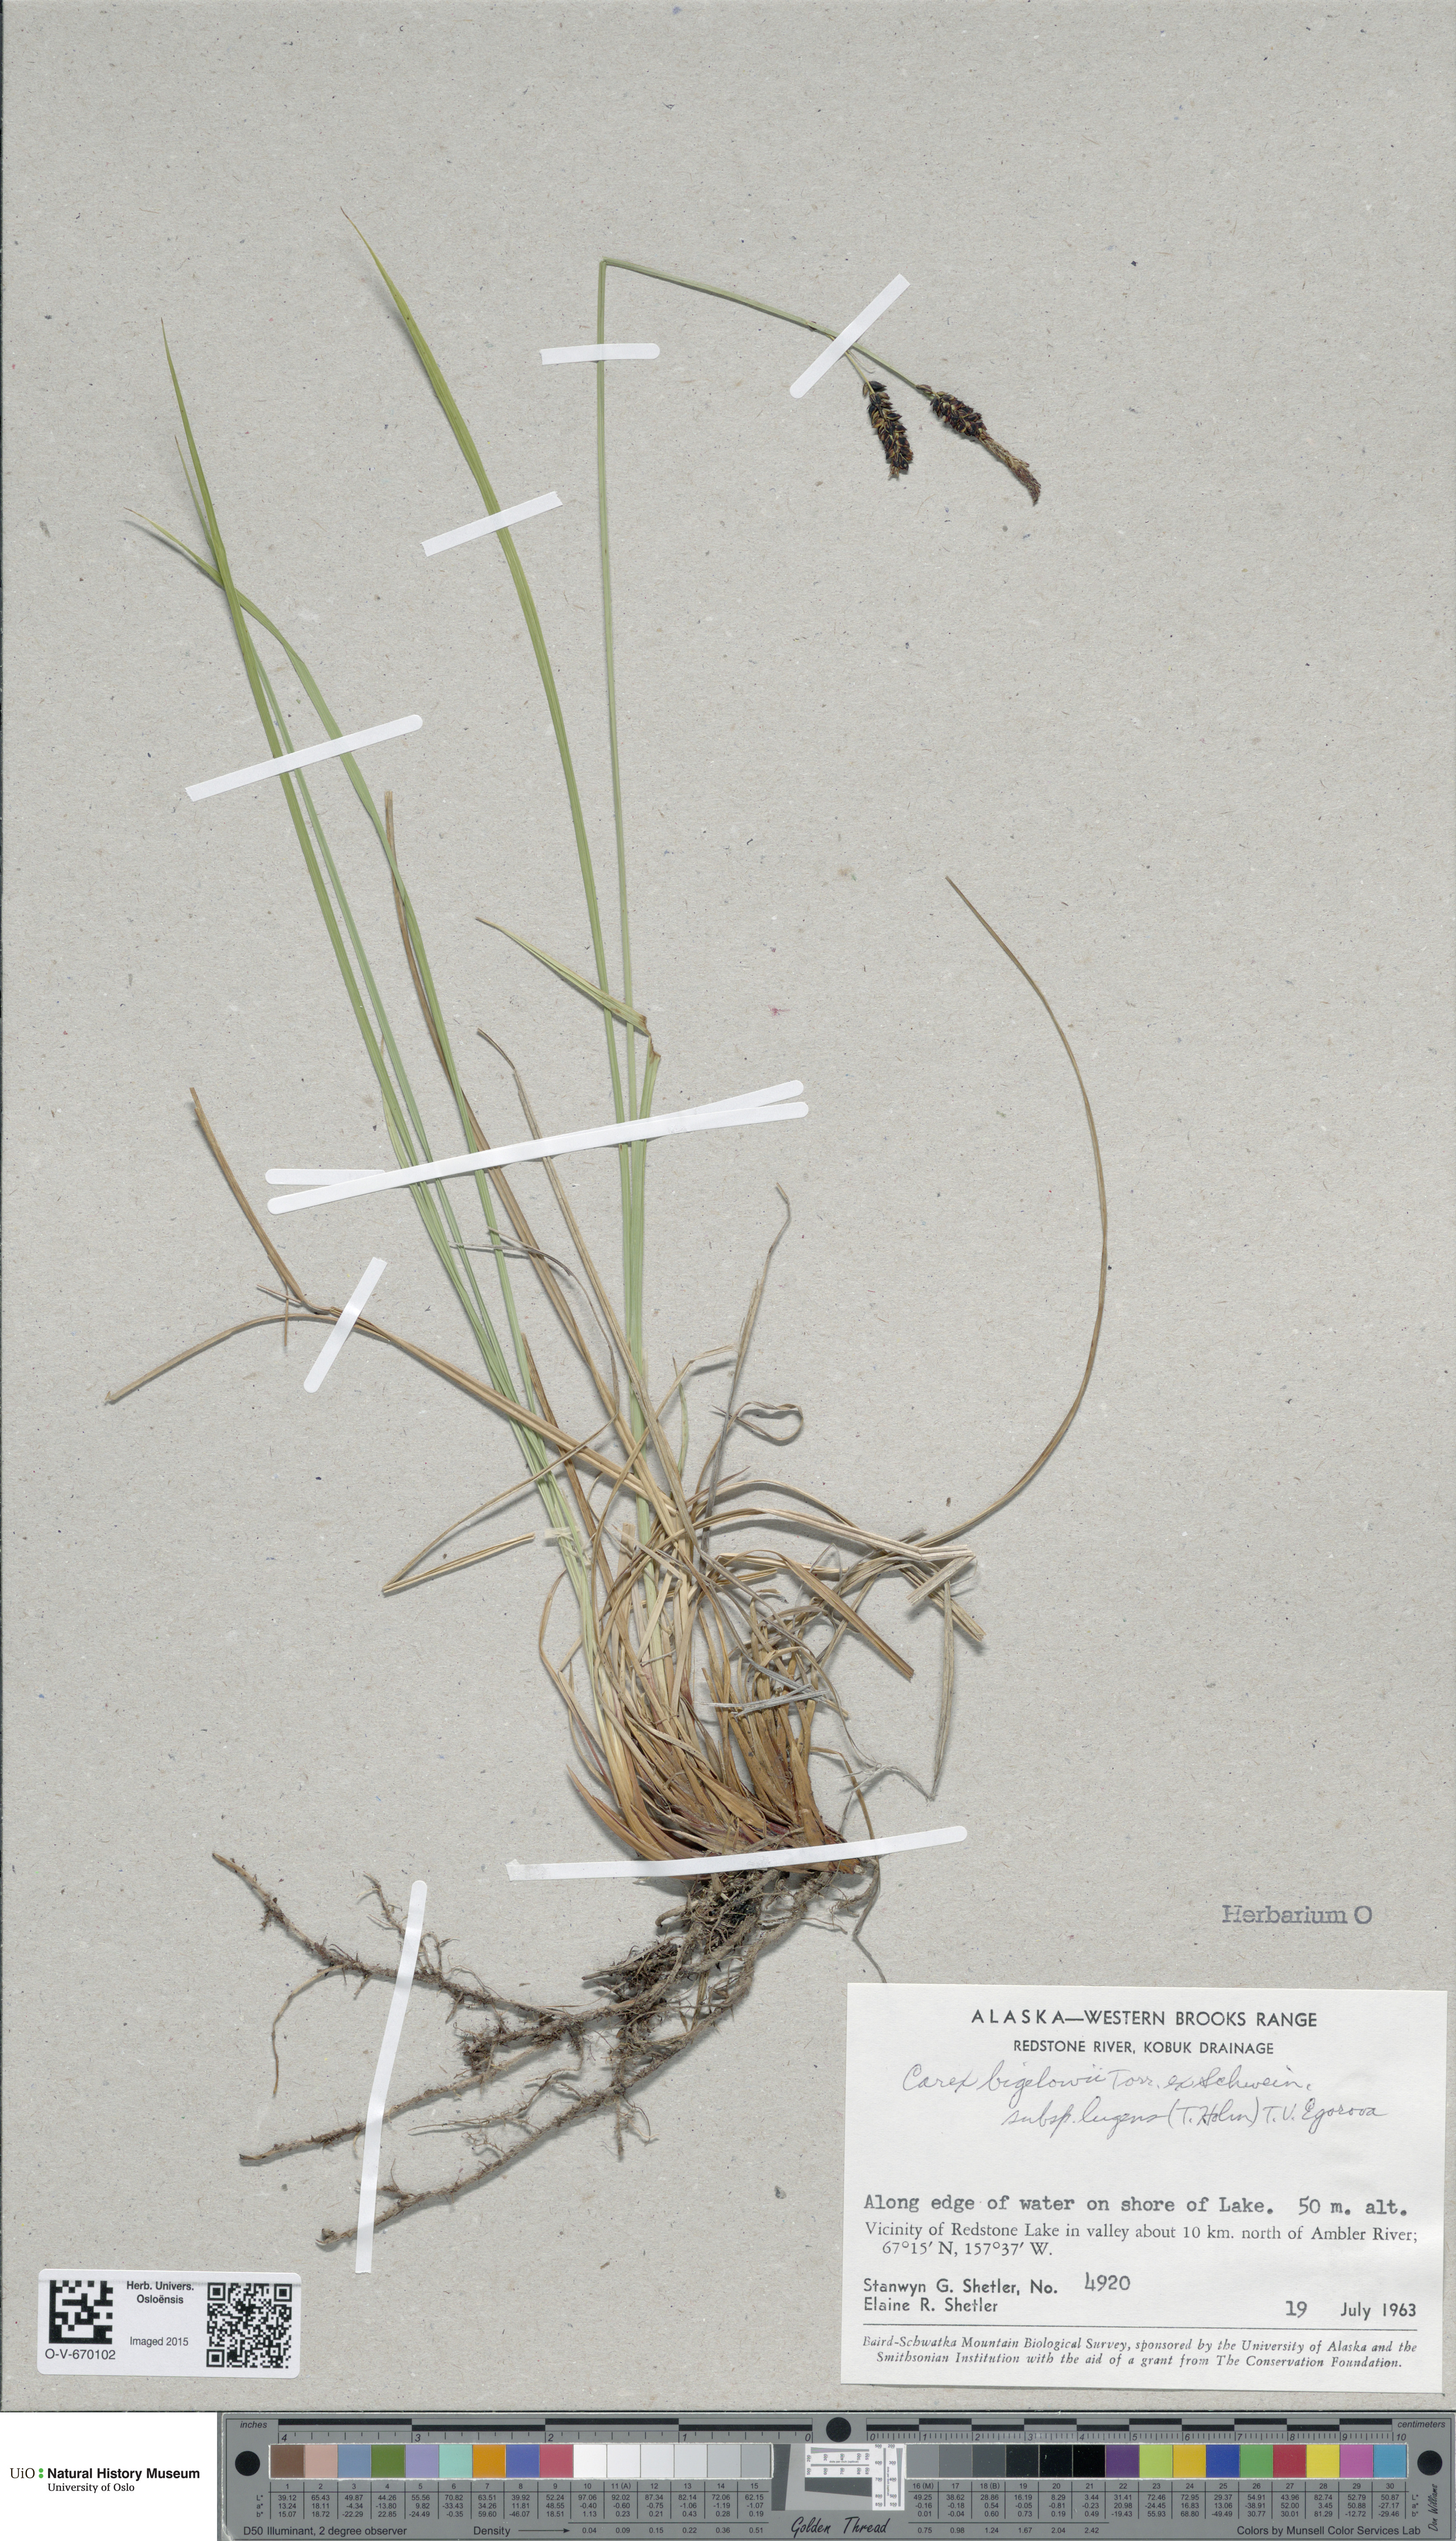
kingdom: Plantae
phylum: Tracheophyta
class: Liliopsida
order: Poales
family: Cyperaceae
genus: Carex
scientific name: Carex bigelowii
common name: Stiff sedge
